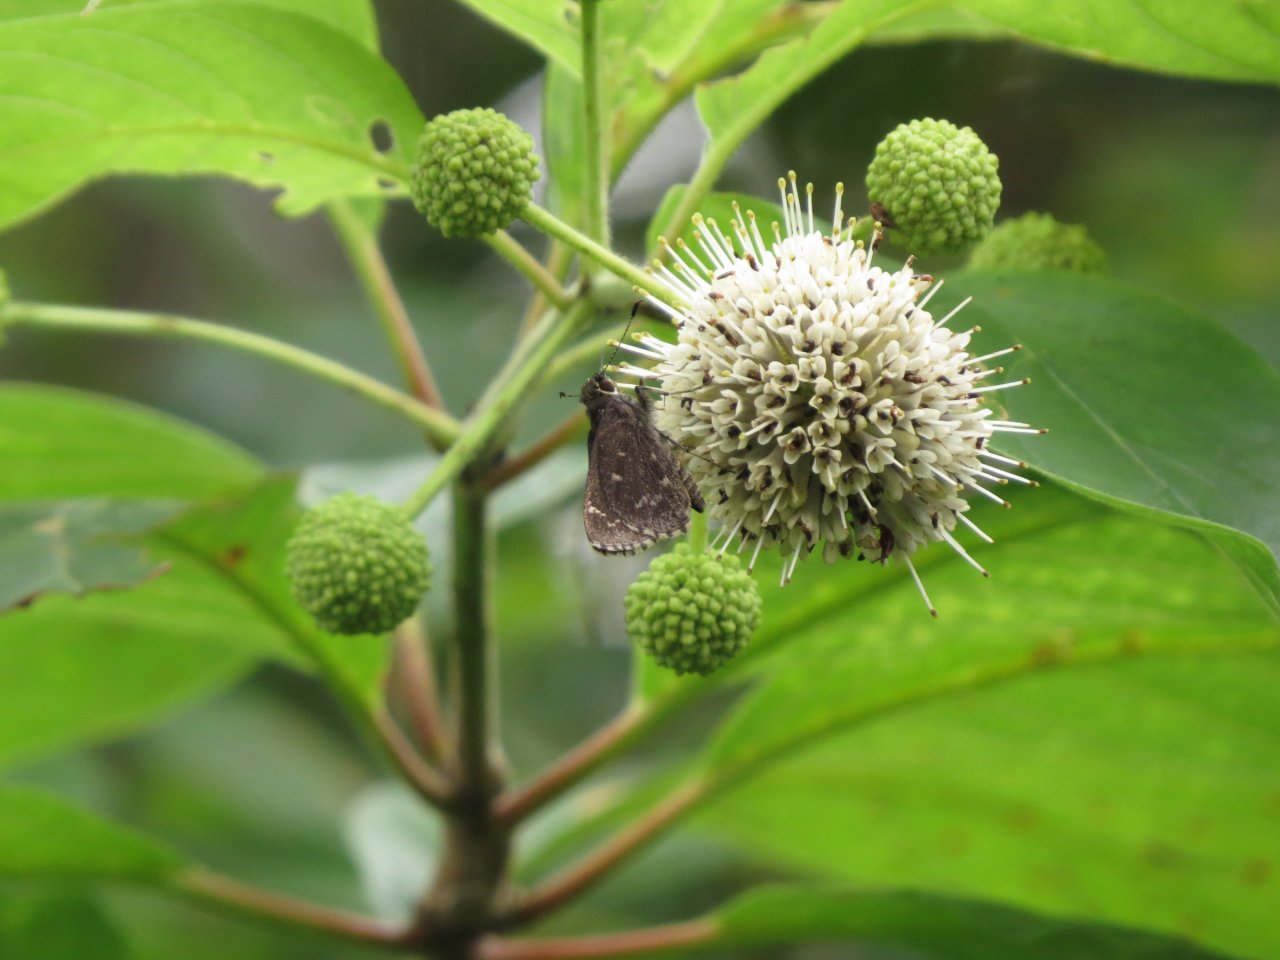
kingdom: Animalia
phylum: Arthropoda
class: Insecta
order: Lepidoptera
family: Hesperiidae
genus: Mastor
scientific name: Mastor celia
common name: Bell's Roadside-Skipper
